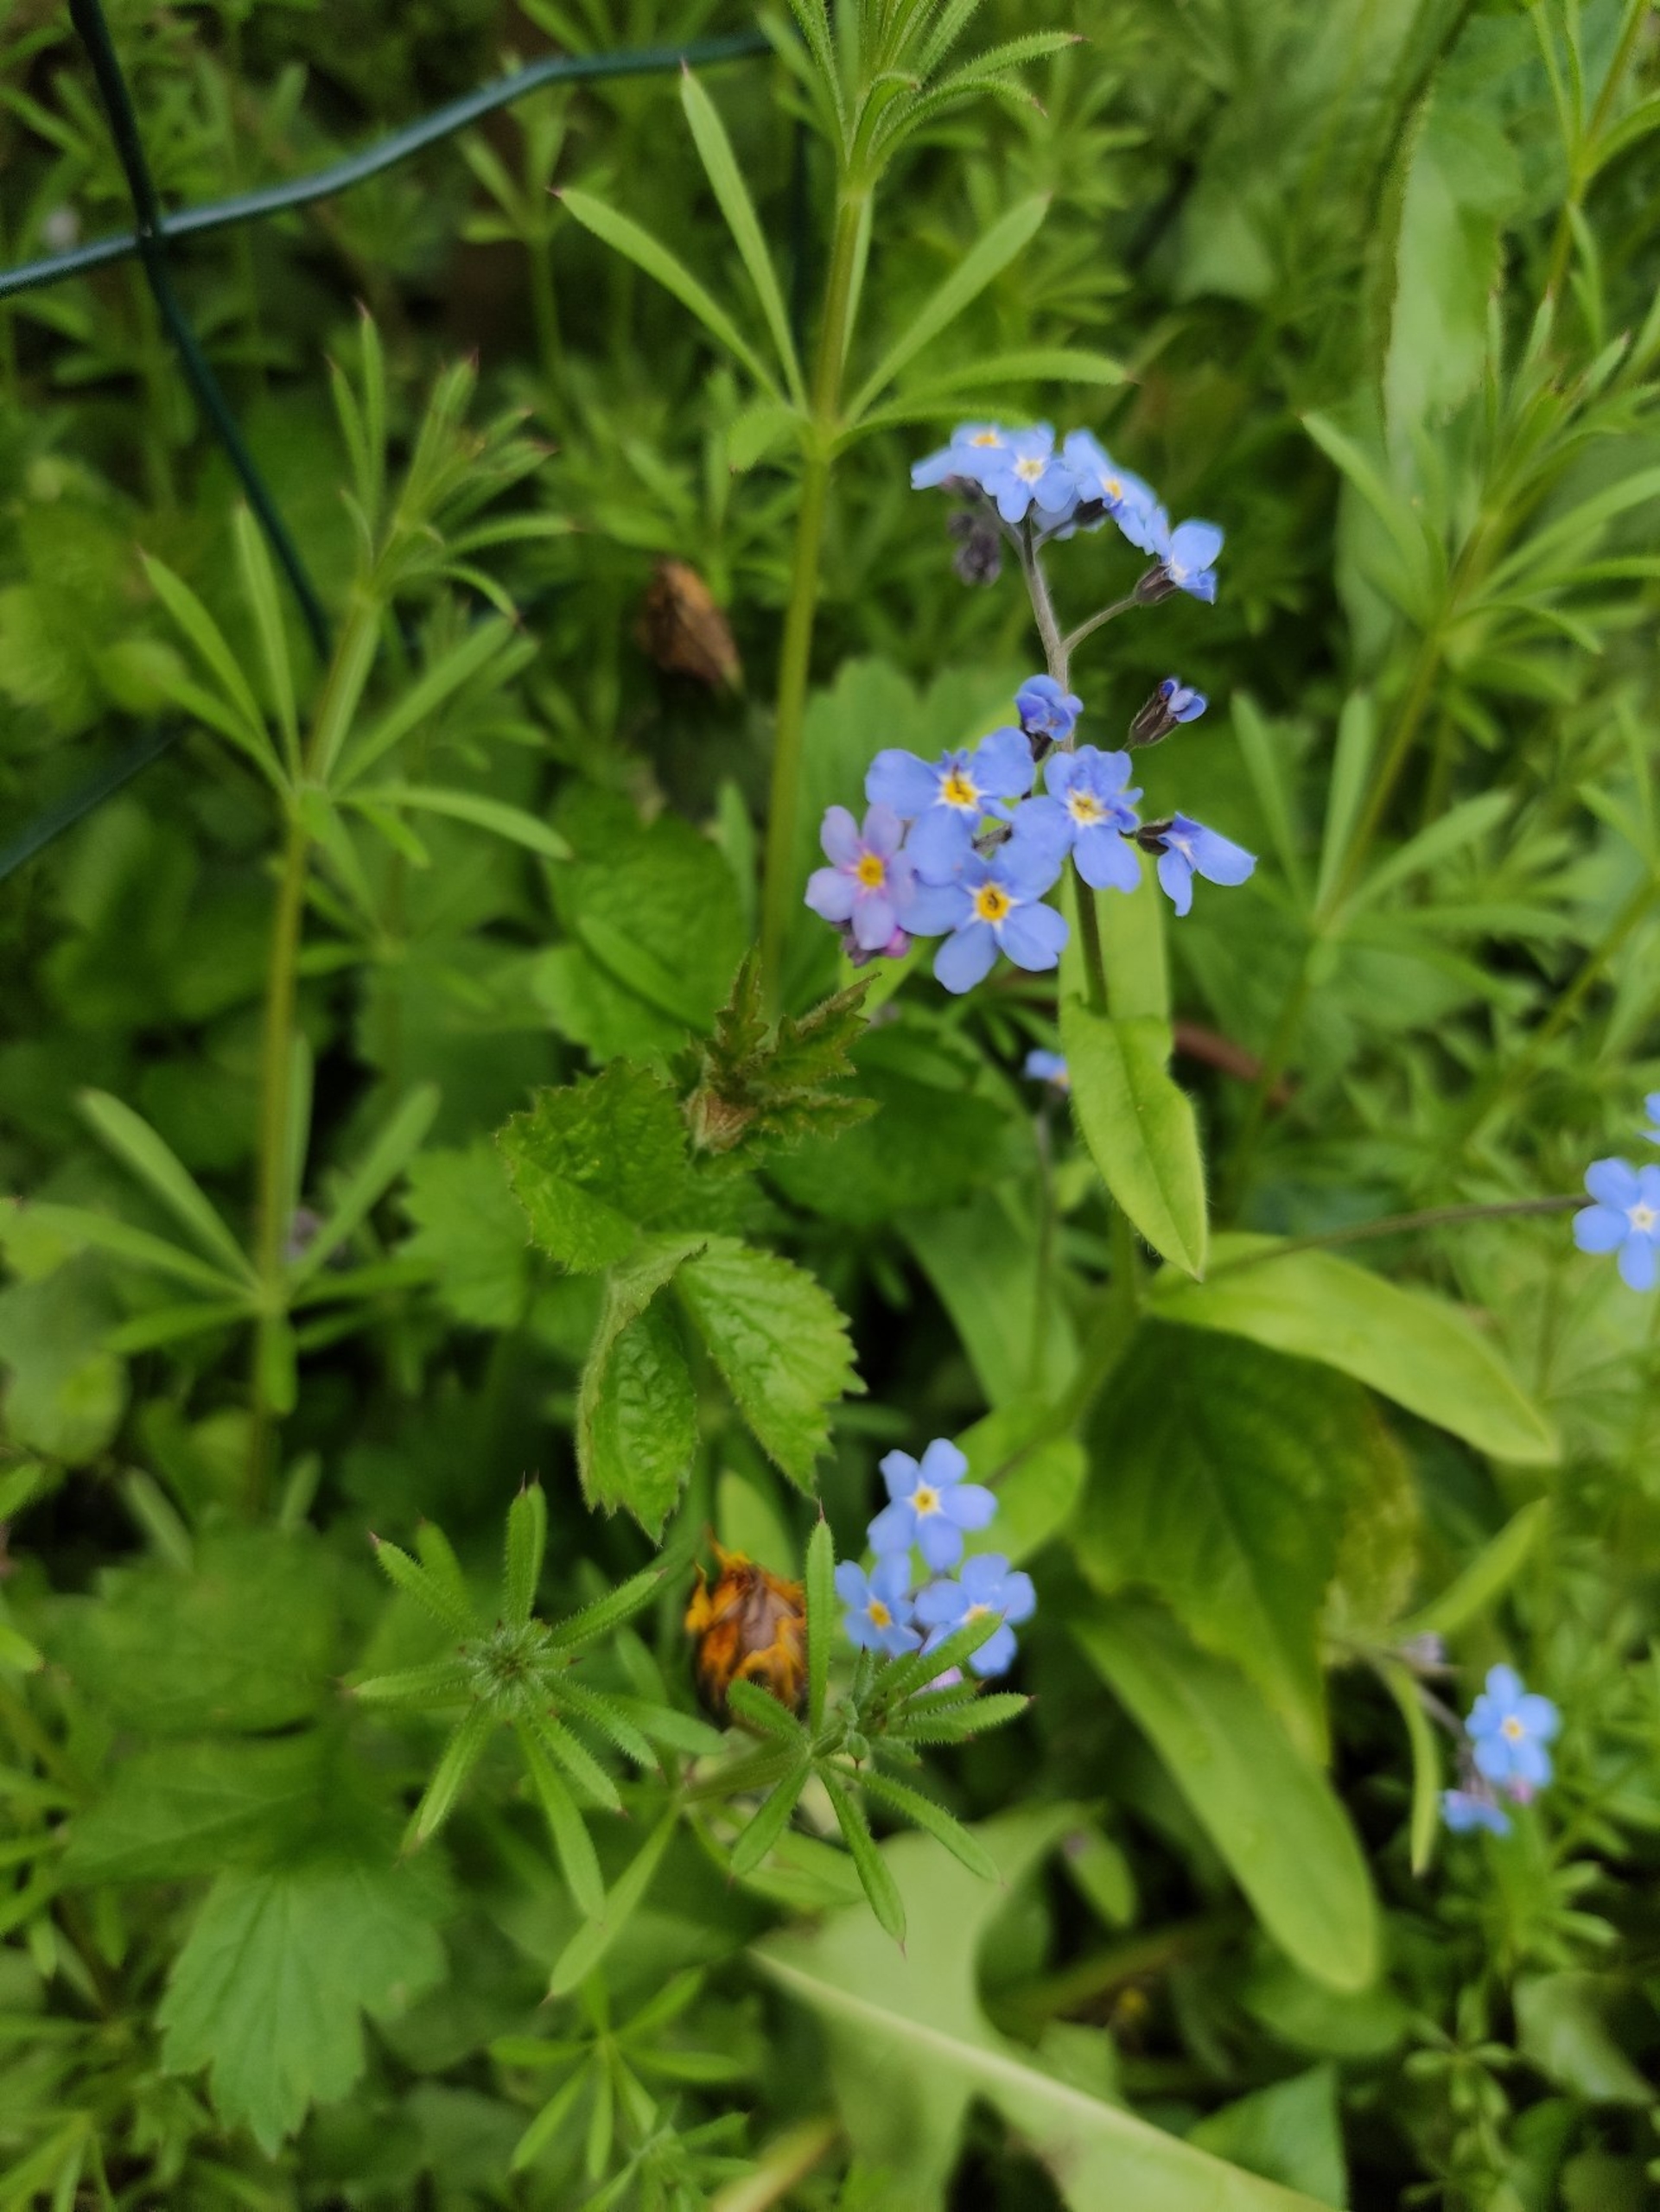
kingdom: Plantae
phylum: Tracheophyta
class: Magnoliopsida
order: Boraginales
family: Boraginaceae
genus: Myosotis
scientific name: Myosotis sylvatica
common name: Skov-forglemmigej
